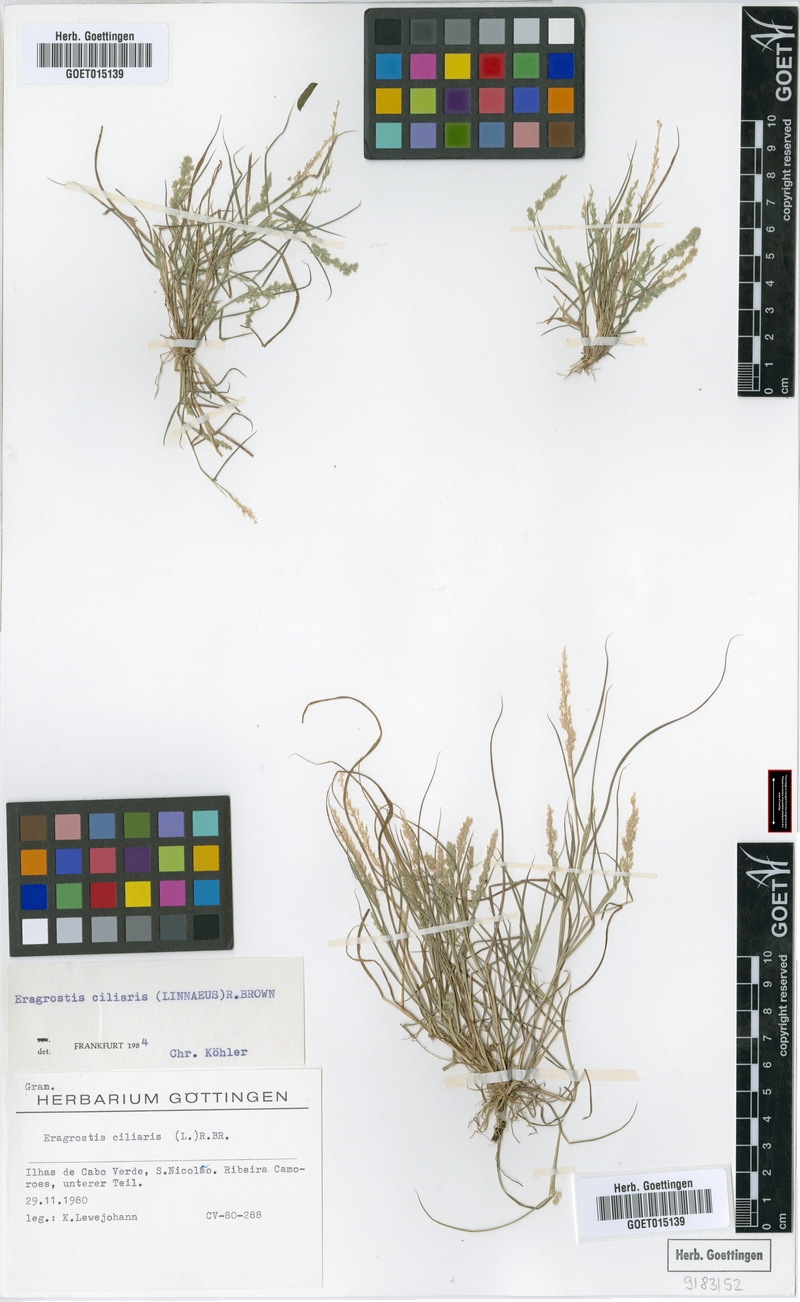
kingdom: Plantae
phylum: Tracheophyta
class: Liliopsida
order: Poales
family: Poaceae
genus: Eragrostis
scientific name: Eragrostis ciliaris
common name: Gophertail lovegrass
